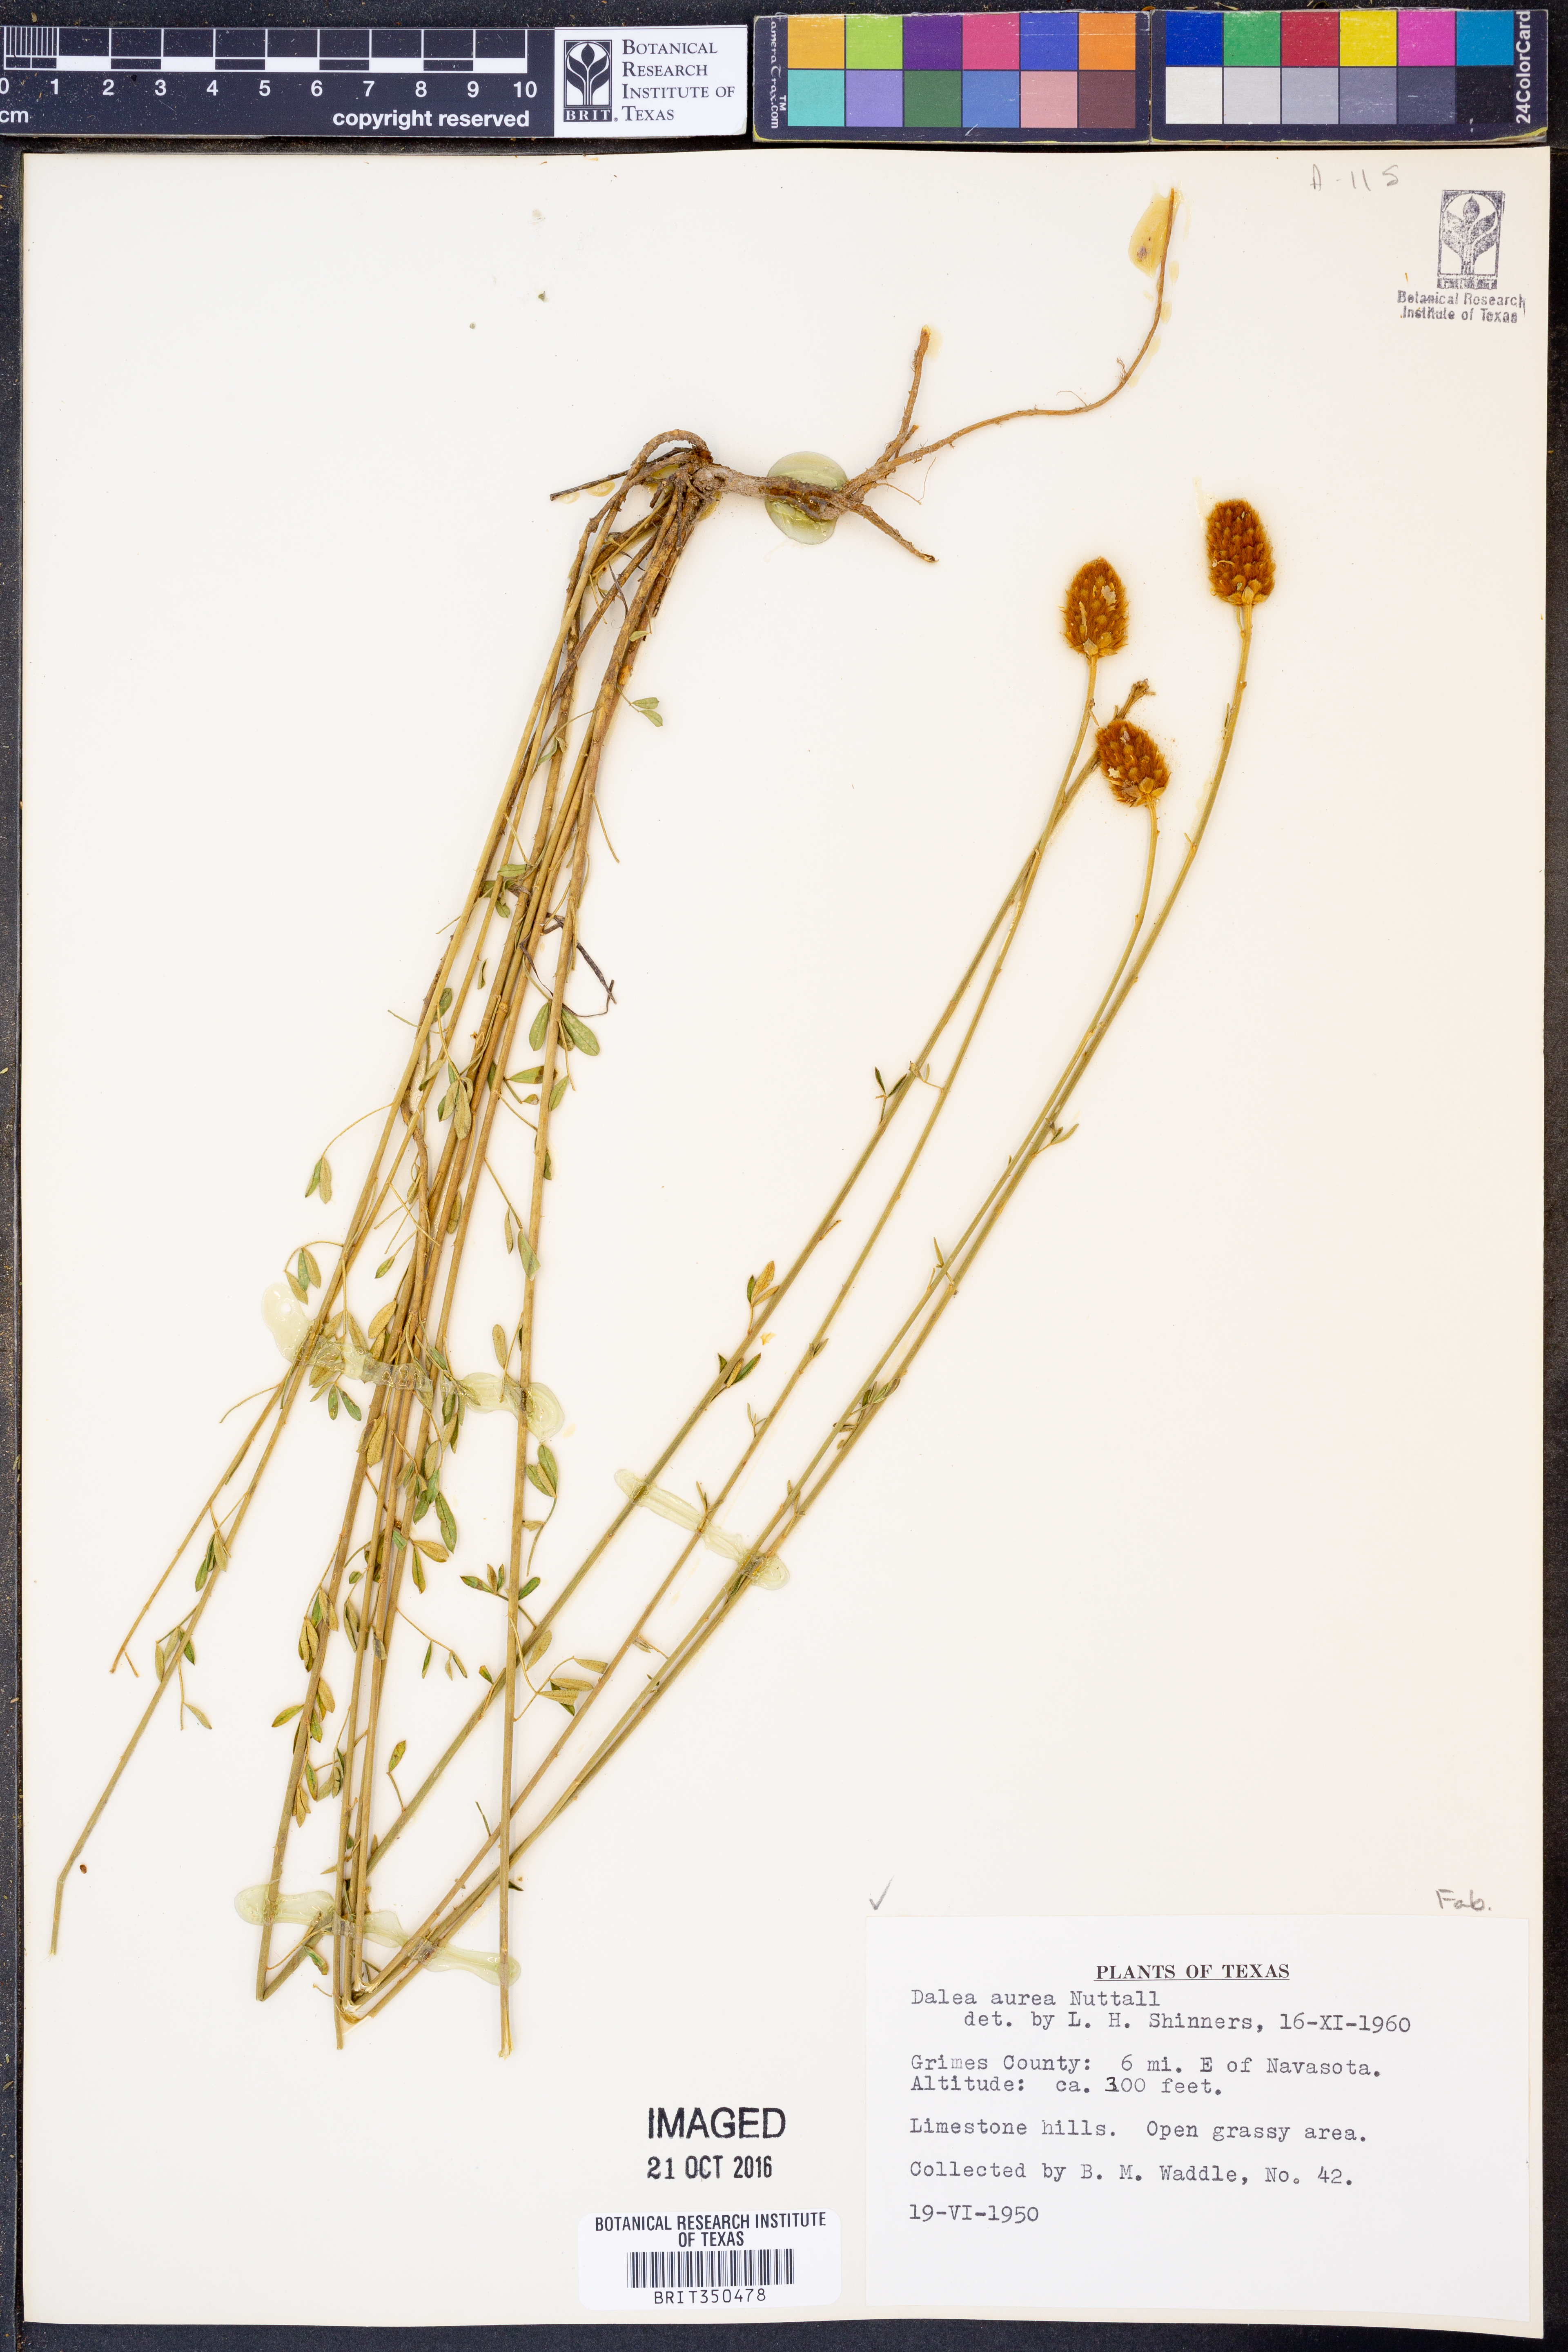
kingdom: Plantae
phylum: Tracheophyta
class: Magnoliopsida
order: Fabales
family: Fabaceae
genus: Dalea
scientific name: Dalea aurea
